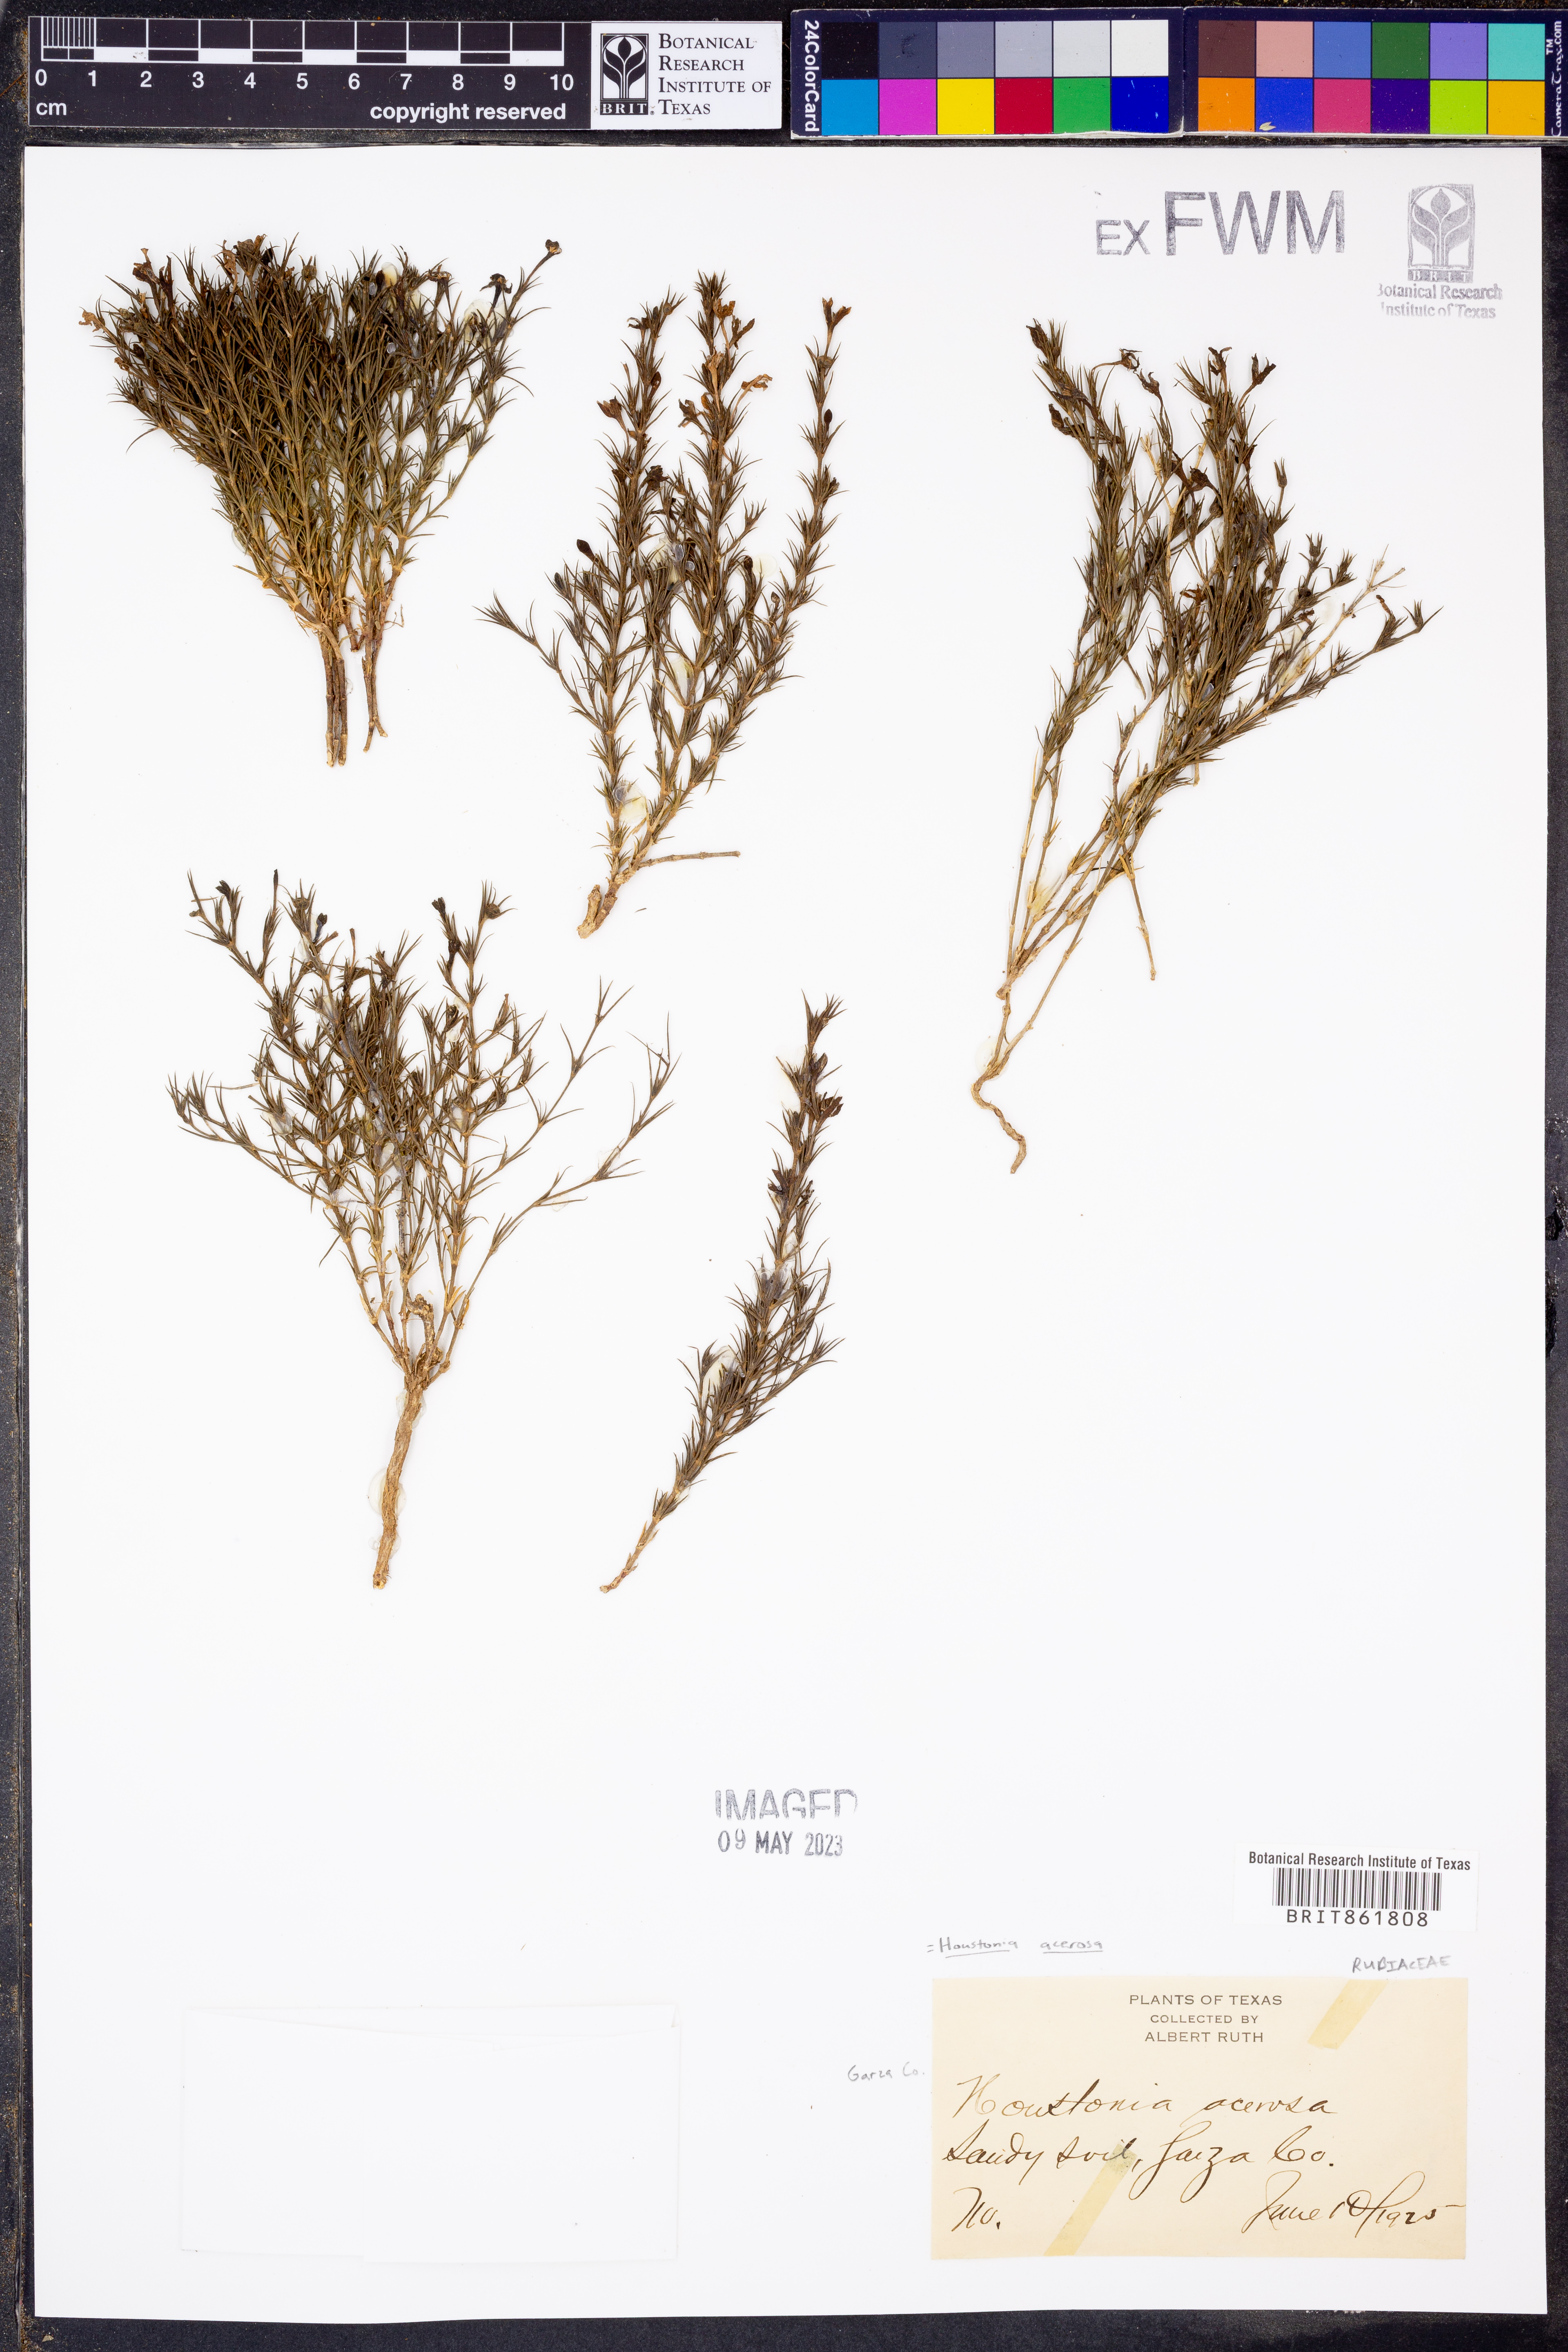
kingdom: Plantae
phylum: Tracheophyta
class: Magnoliopsida
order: Gentianales
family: Rubiaceae
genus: Houstonia
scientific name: Houstonia acerosa
